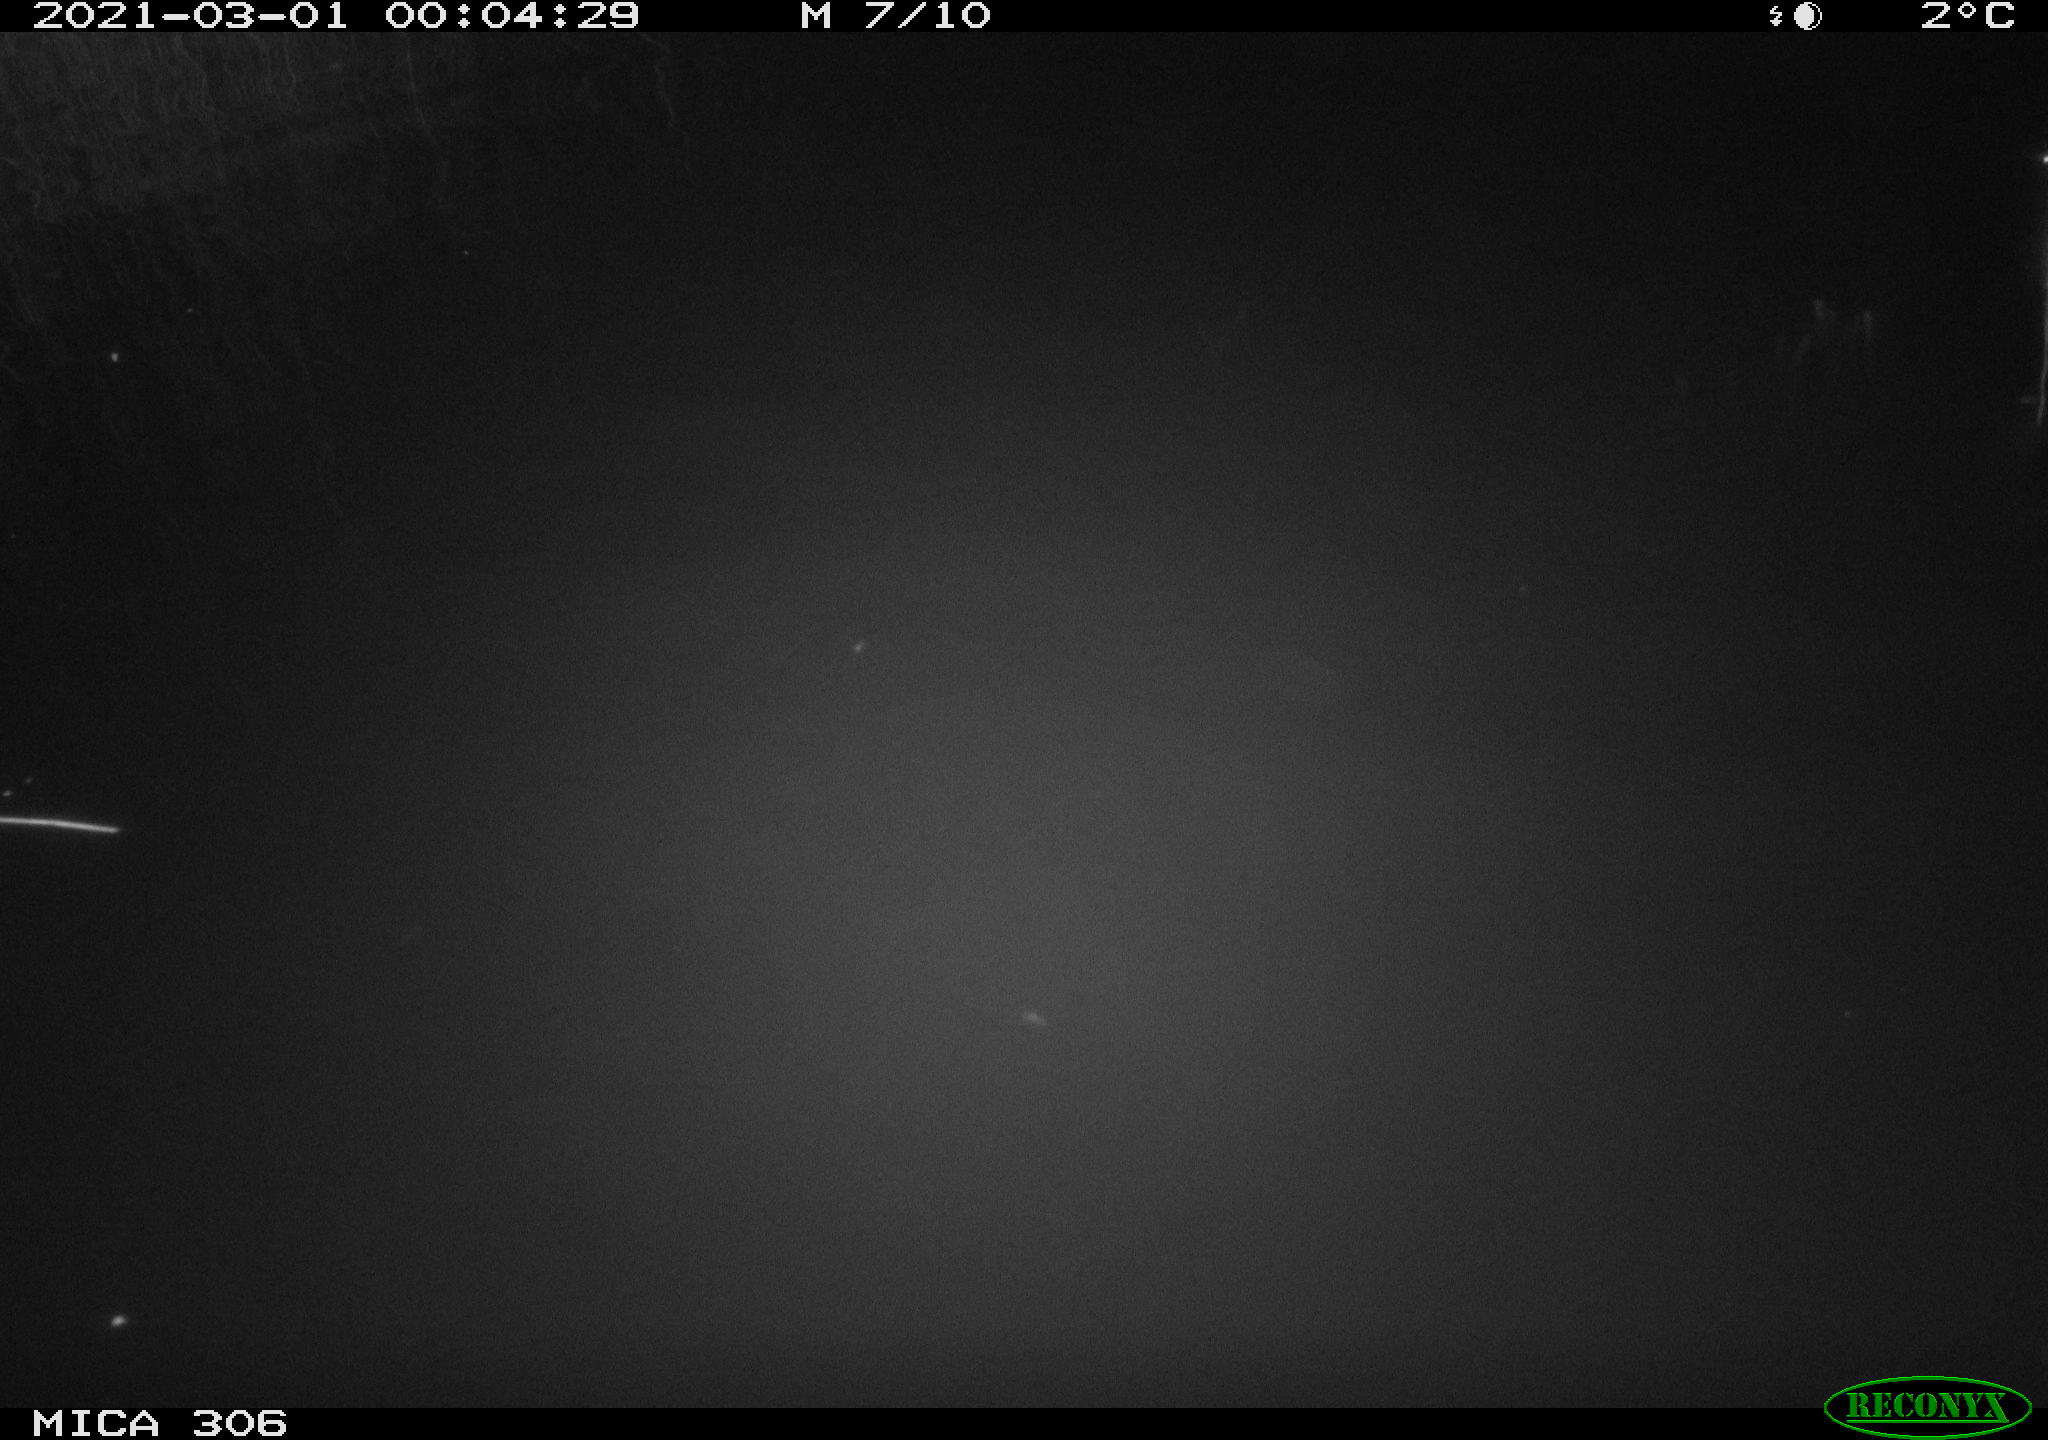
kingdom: Animalia
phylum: Chordata
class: Mammalia
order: Rodentia
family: Cricetidae
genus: Ondatra
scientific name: Ondatra zibethicus
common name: Muskrat
